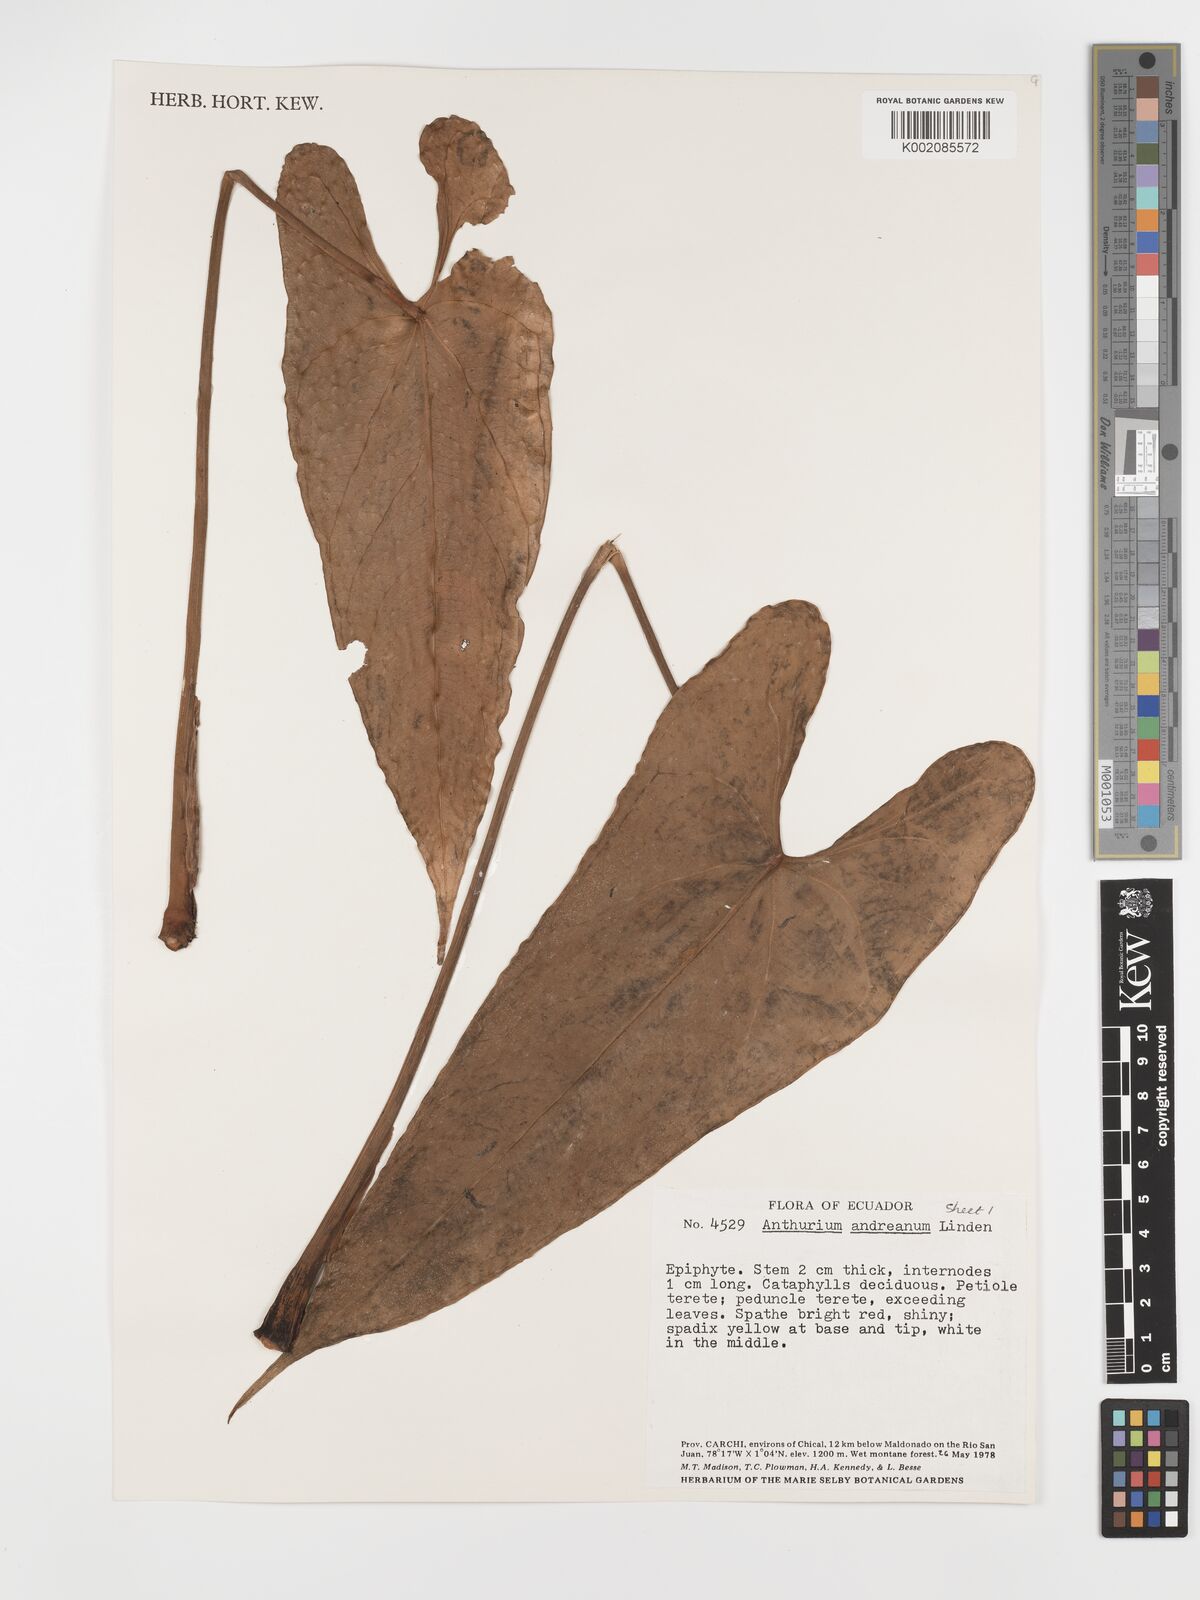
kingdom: Plantae
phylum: Tracheophyta
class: Liliopsida
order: Alismatales
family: Araceae
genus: Anthurium
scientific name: Anthurium andraeanum
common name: Flamingo-flower
